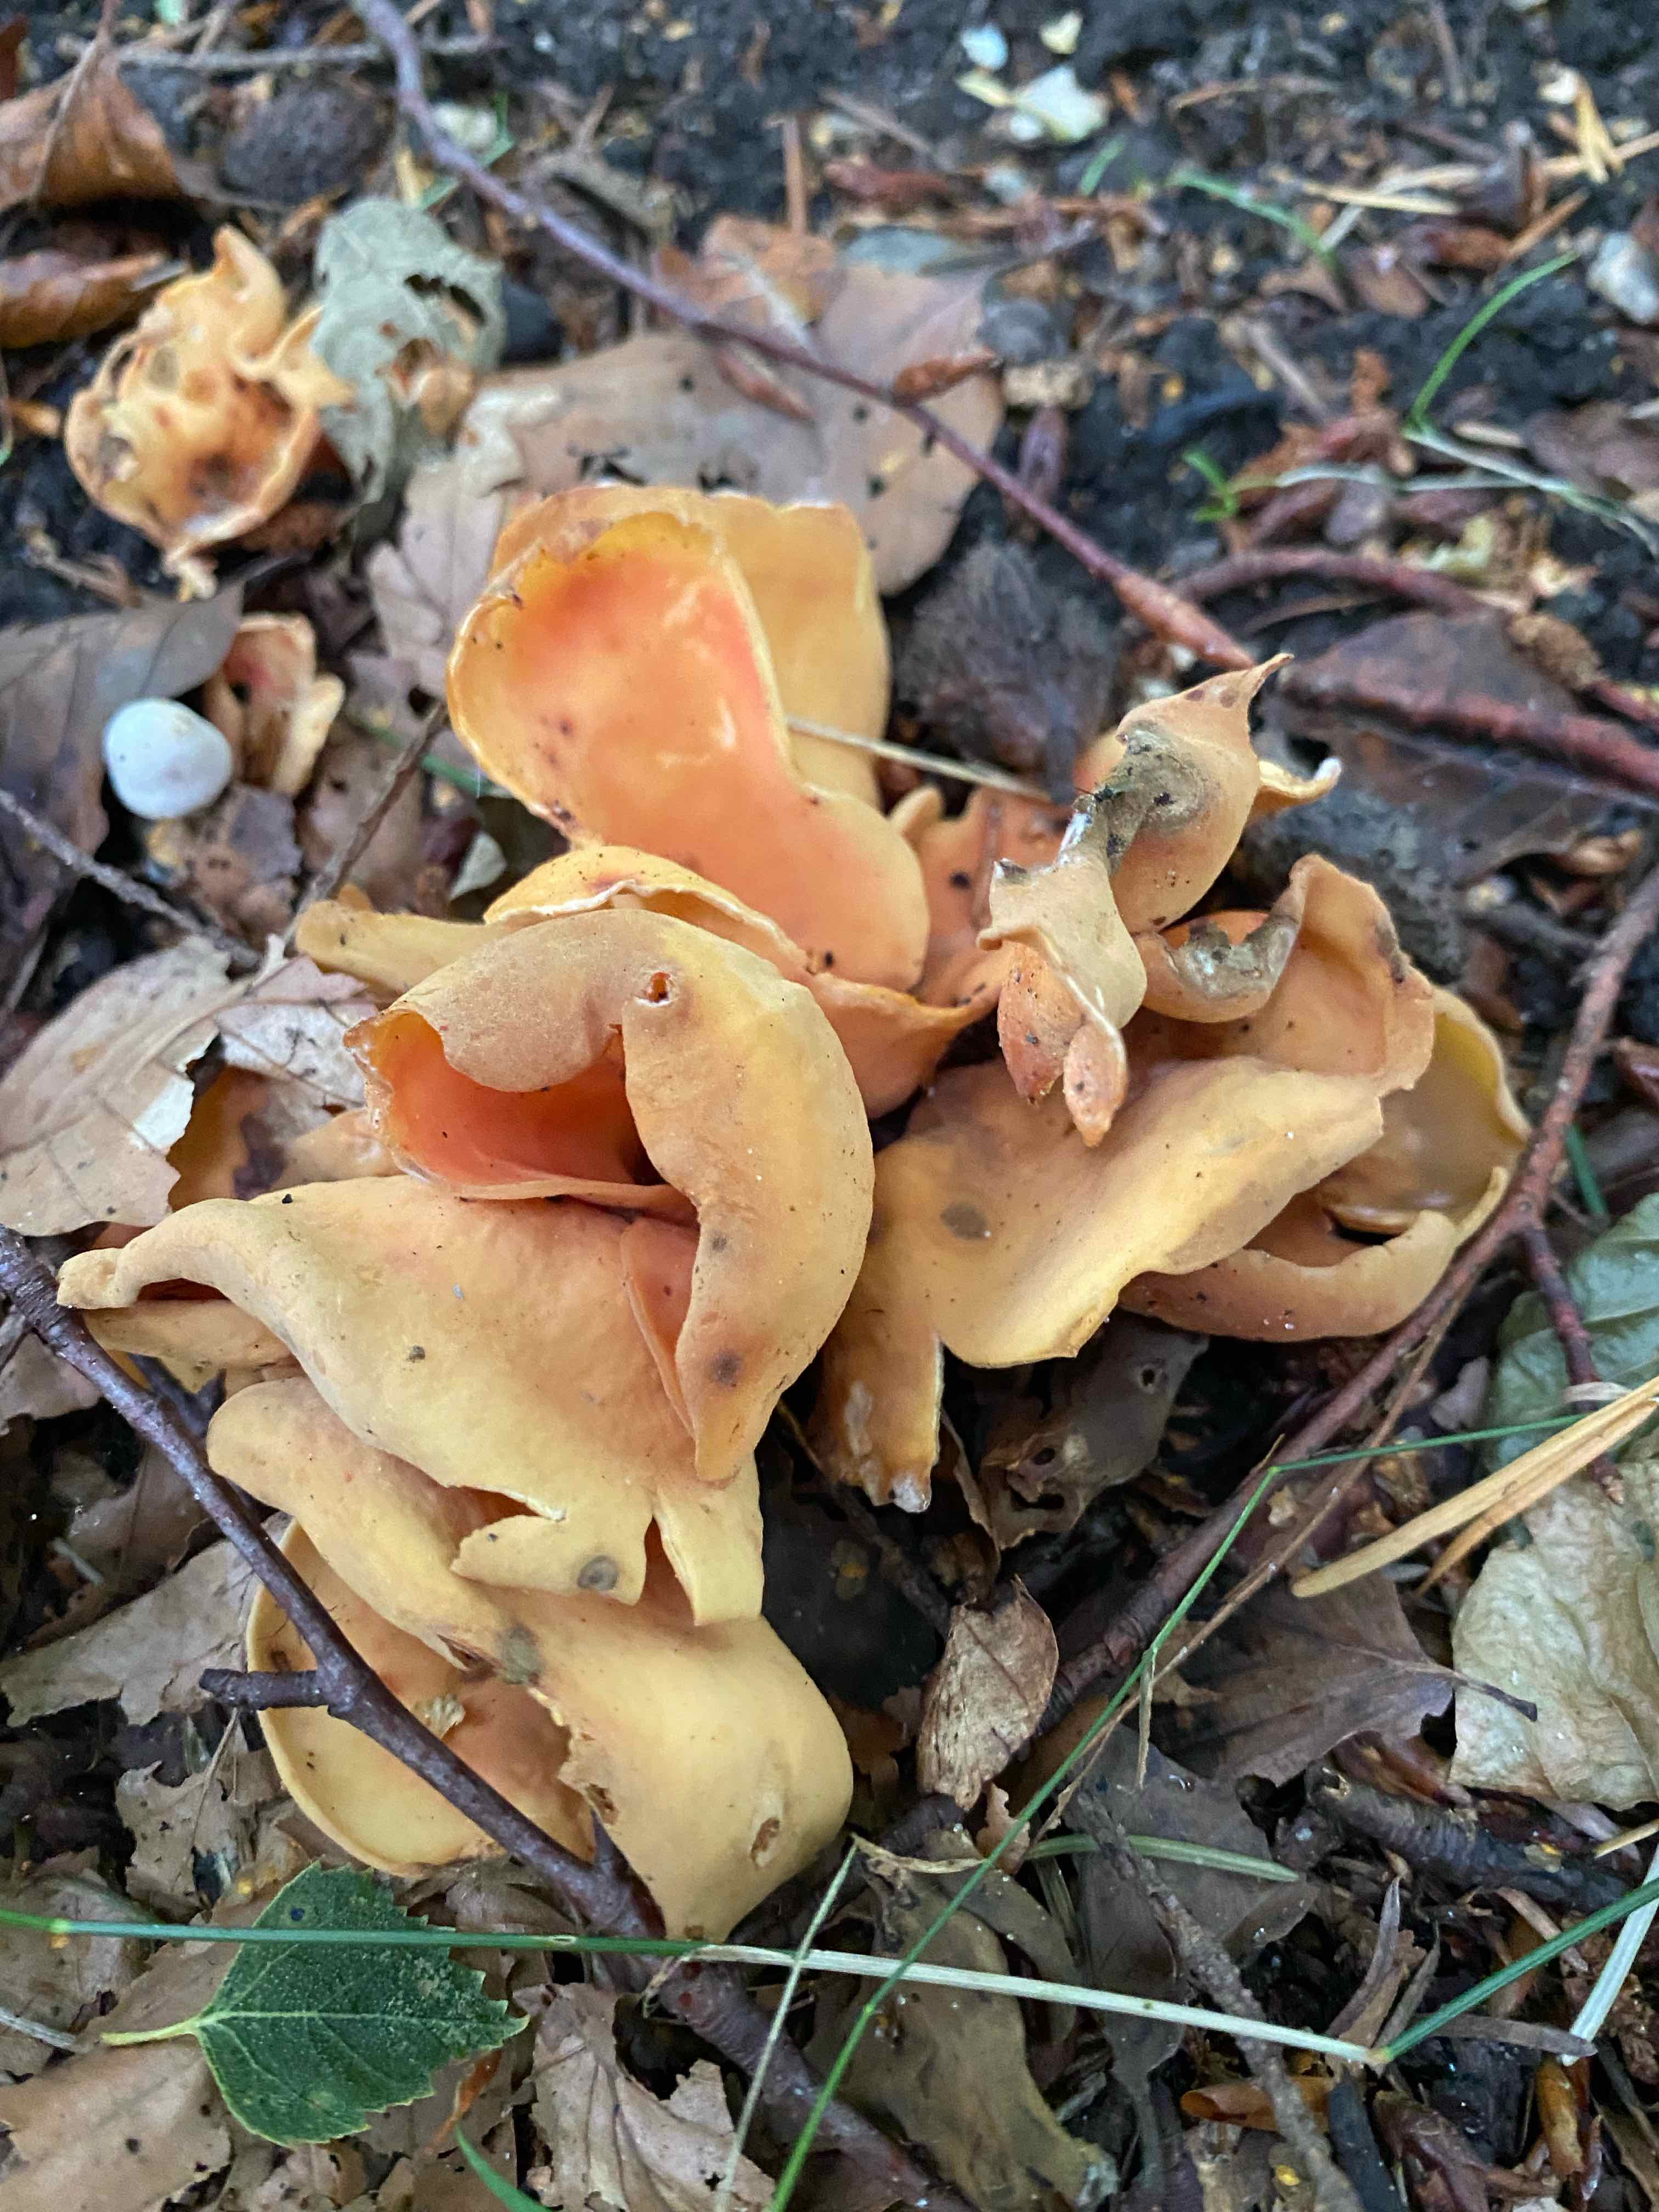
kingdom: Fungi
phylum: Ascomycota
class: Pezizomycetes
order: Pezizales
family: Otideaceae
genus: Otidea
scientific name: Otidea onotica
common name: æsel-ørebæger
